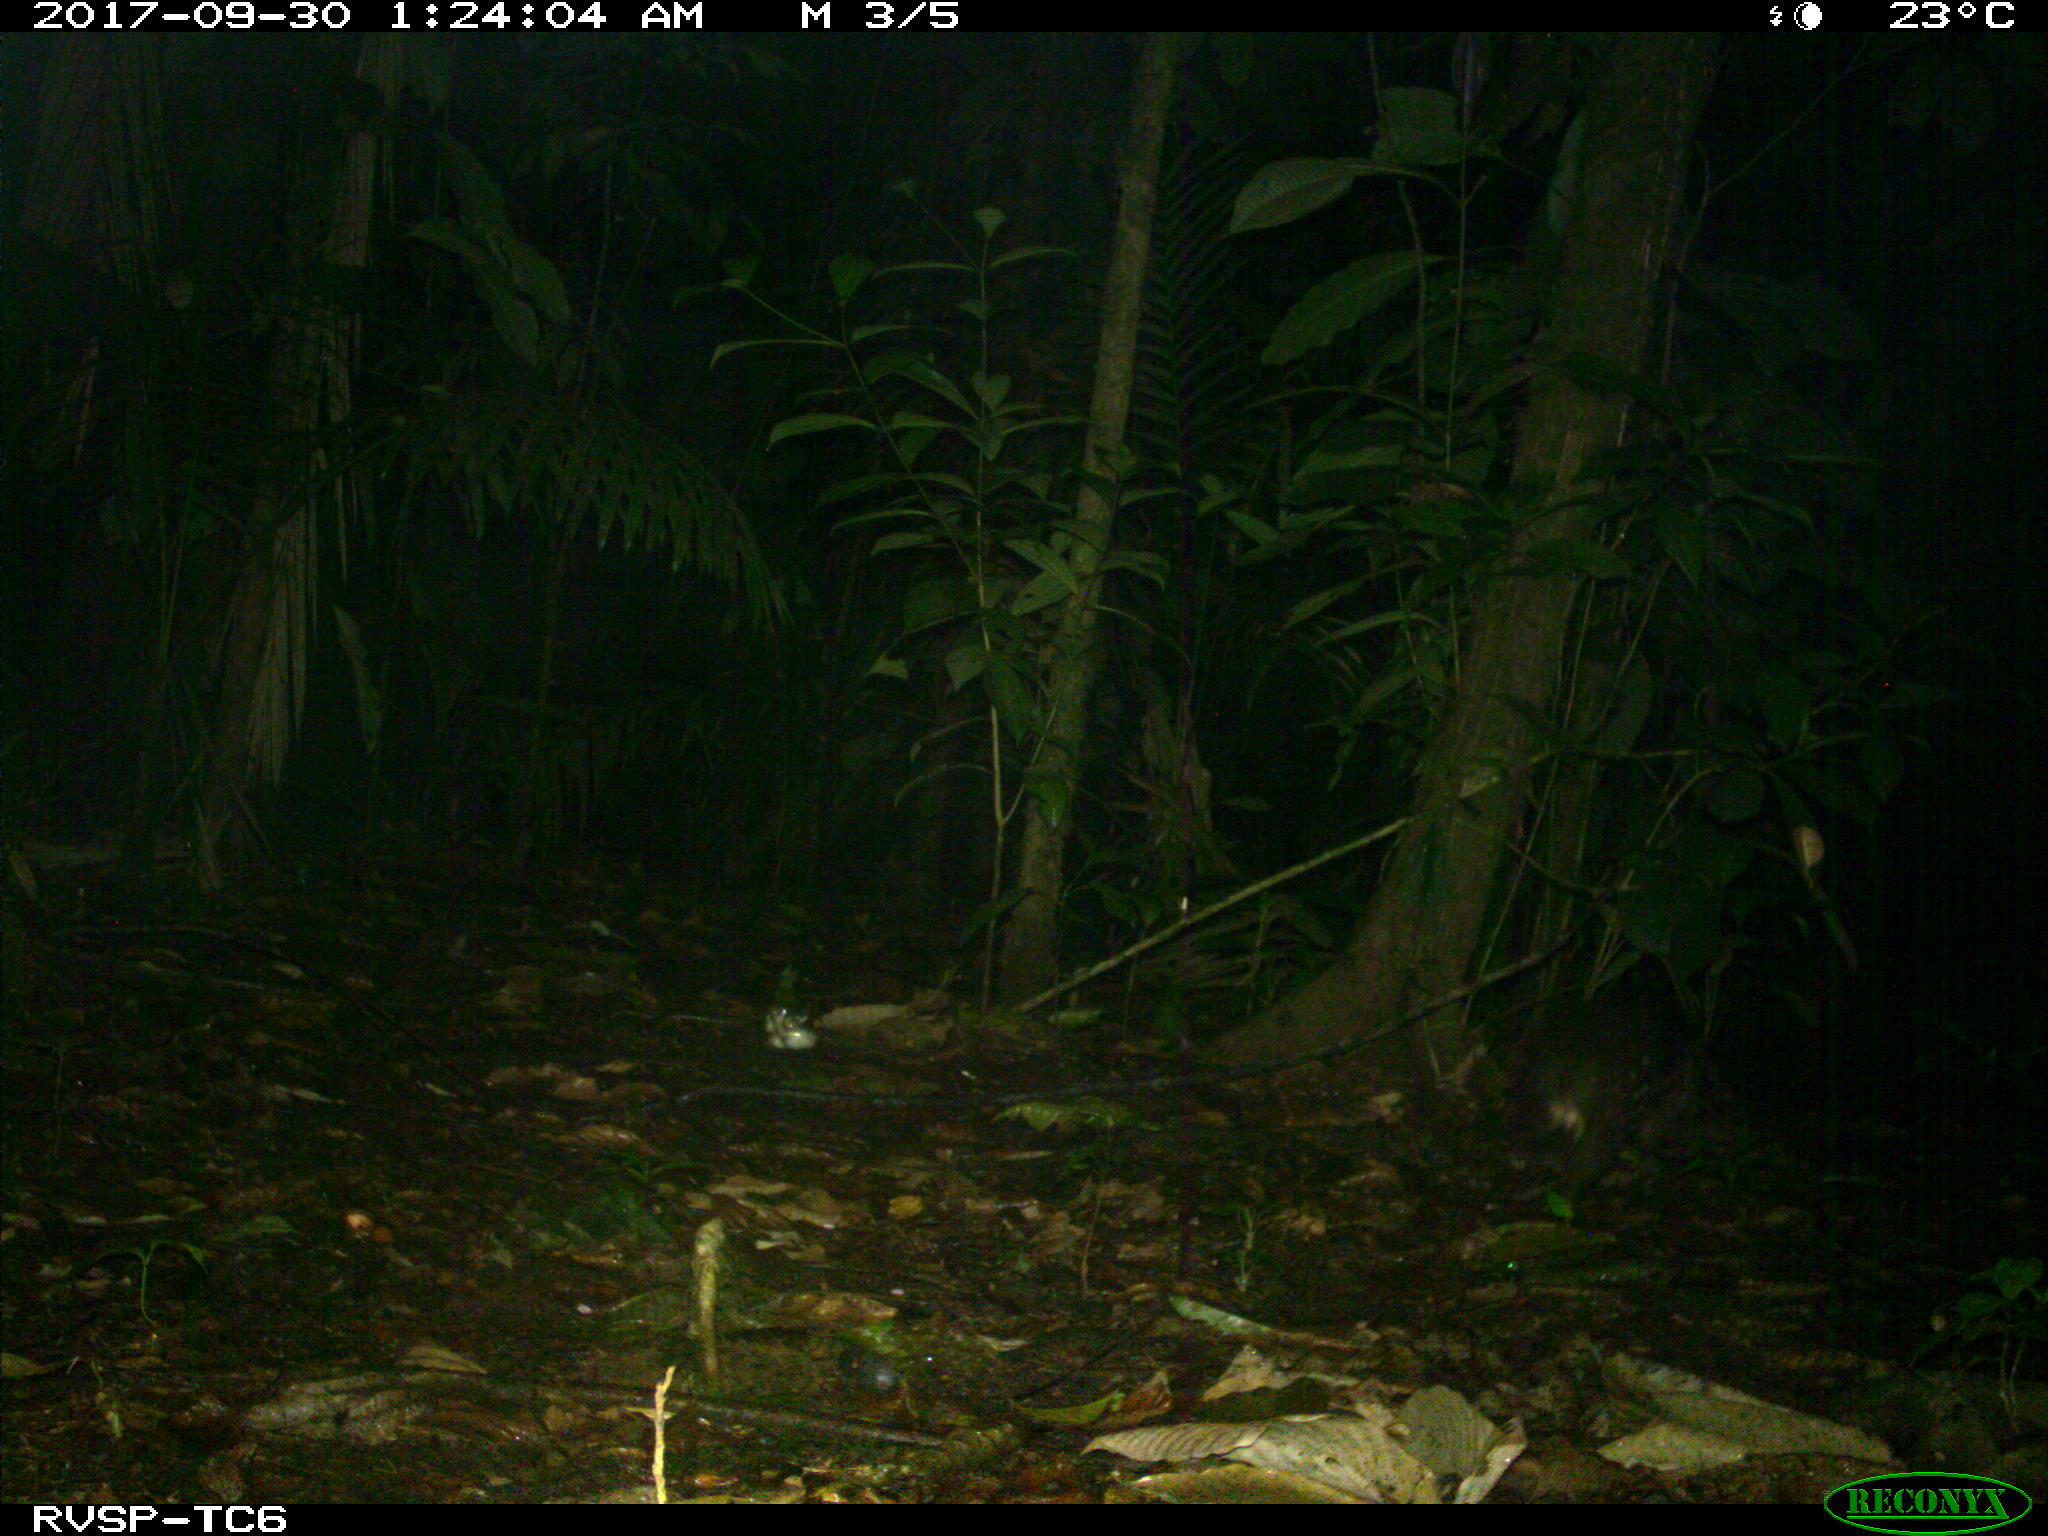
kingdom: Animalia
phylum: Chordata
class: Mammalia
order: Rodentia
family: Cuniculidae
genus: Cuniculus
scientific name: Cuniculus paca
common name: Lowland paca
